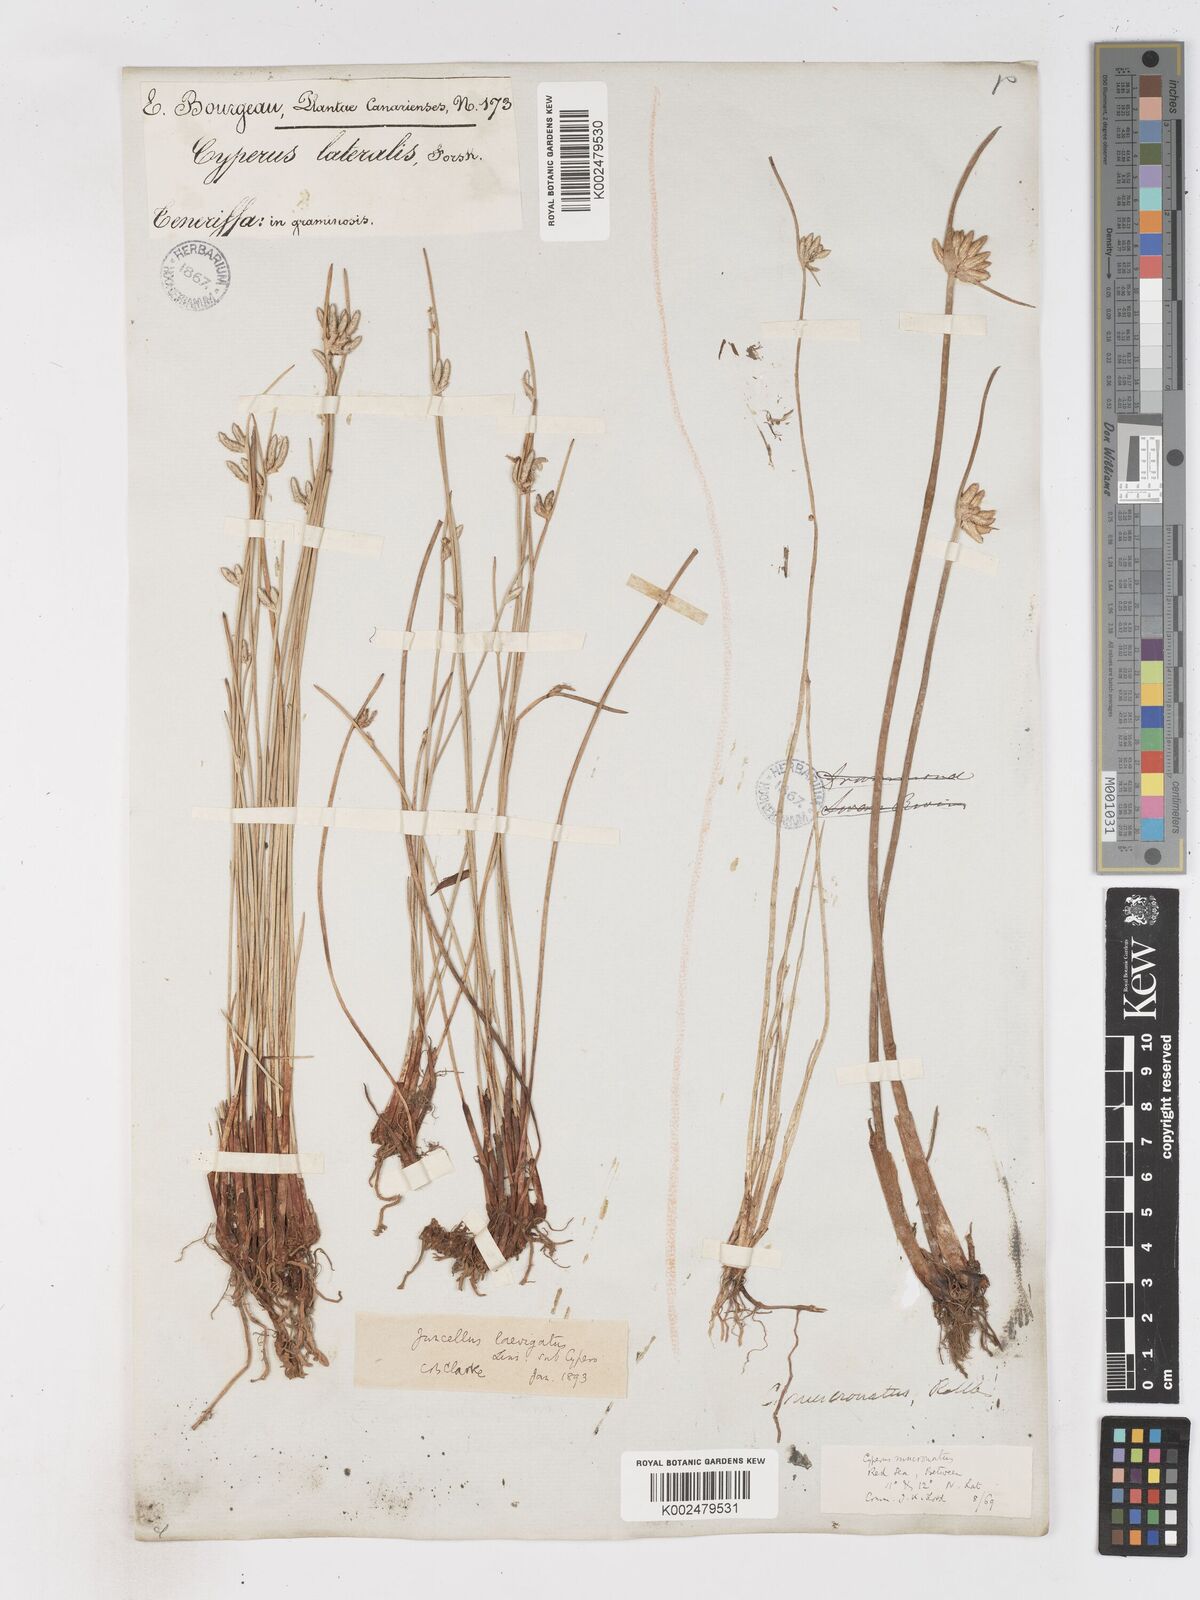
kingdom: Plantae
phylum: Tracheophyta
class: Liliopsida
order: Poales
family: Cyperaceae
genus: Cyperus
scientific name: Cyperus laevigatus
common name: Smooth flat sedge
